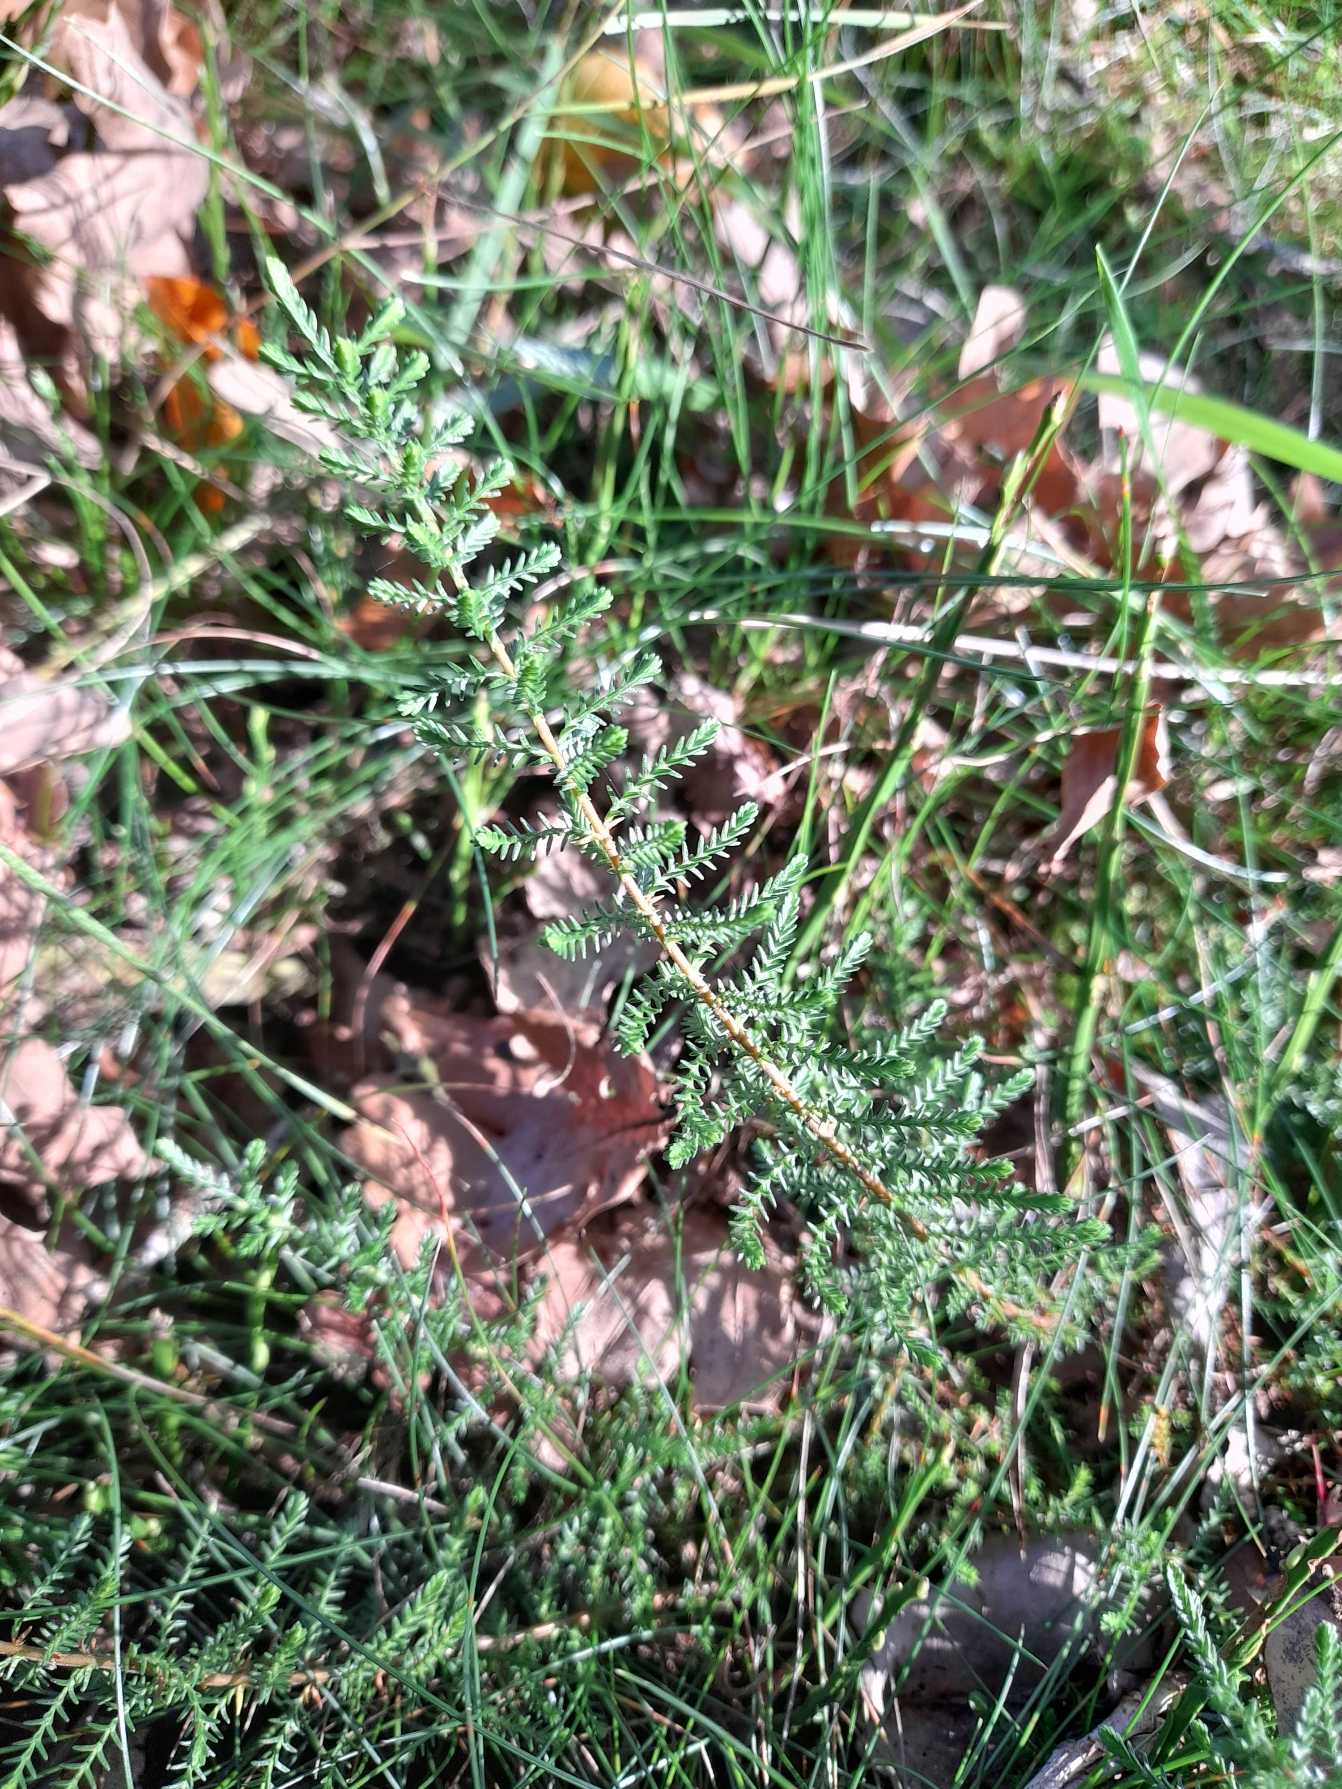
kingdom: Plantae
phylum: Tracheophyta
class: Magnoliopsida
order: Ericales
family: Ericaceae
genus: Calluna
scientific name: Calluna vulgaris
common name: Hedelyng
